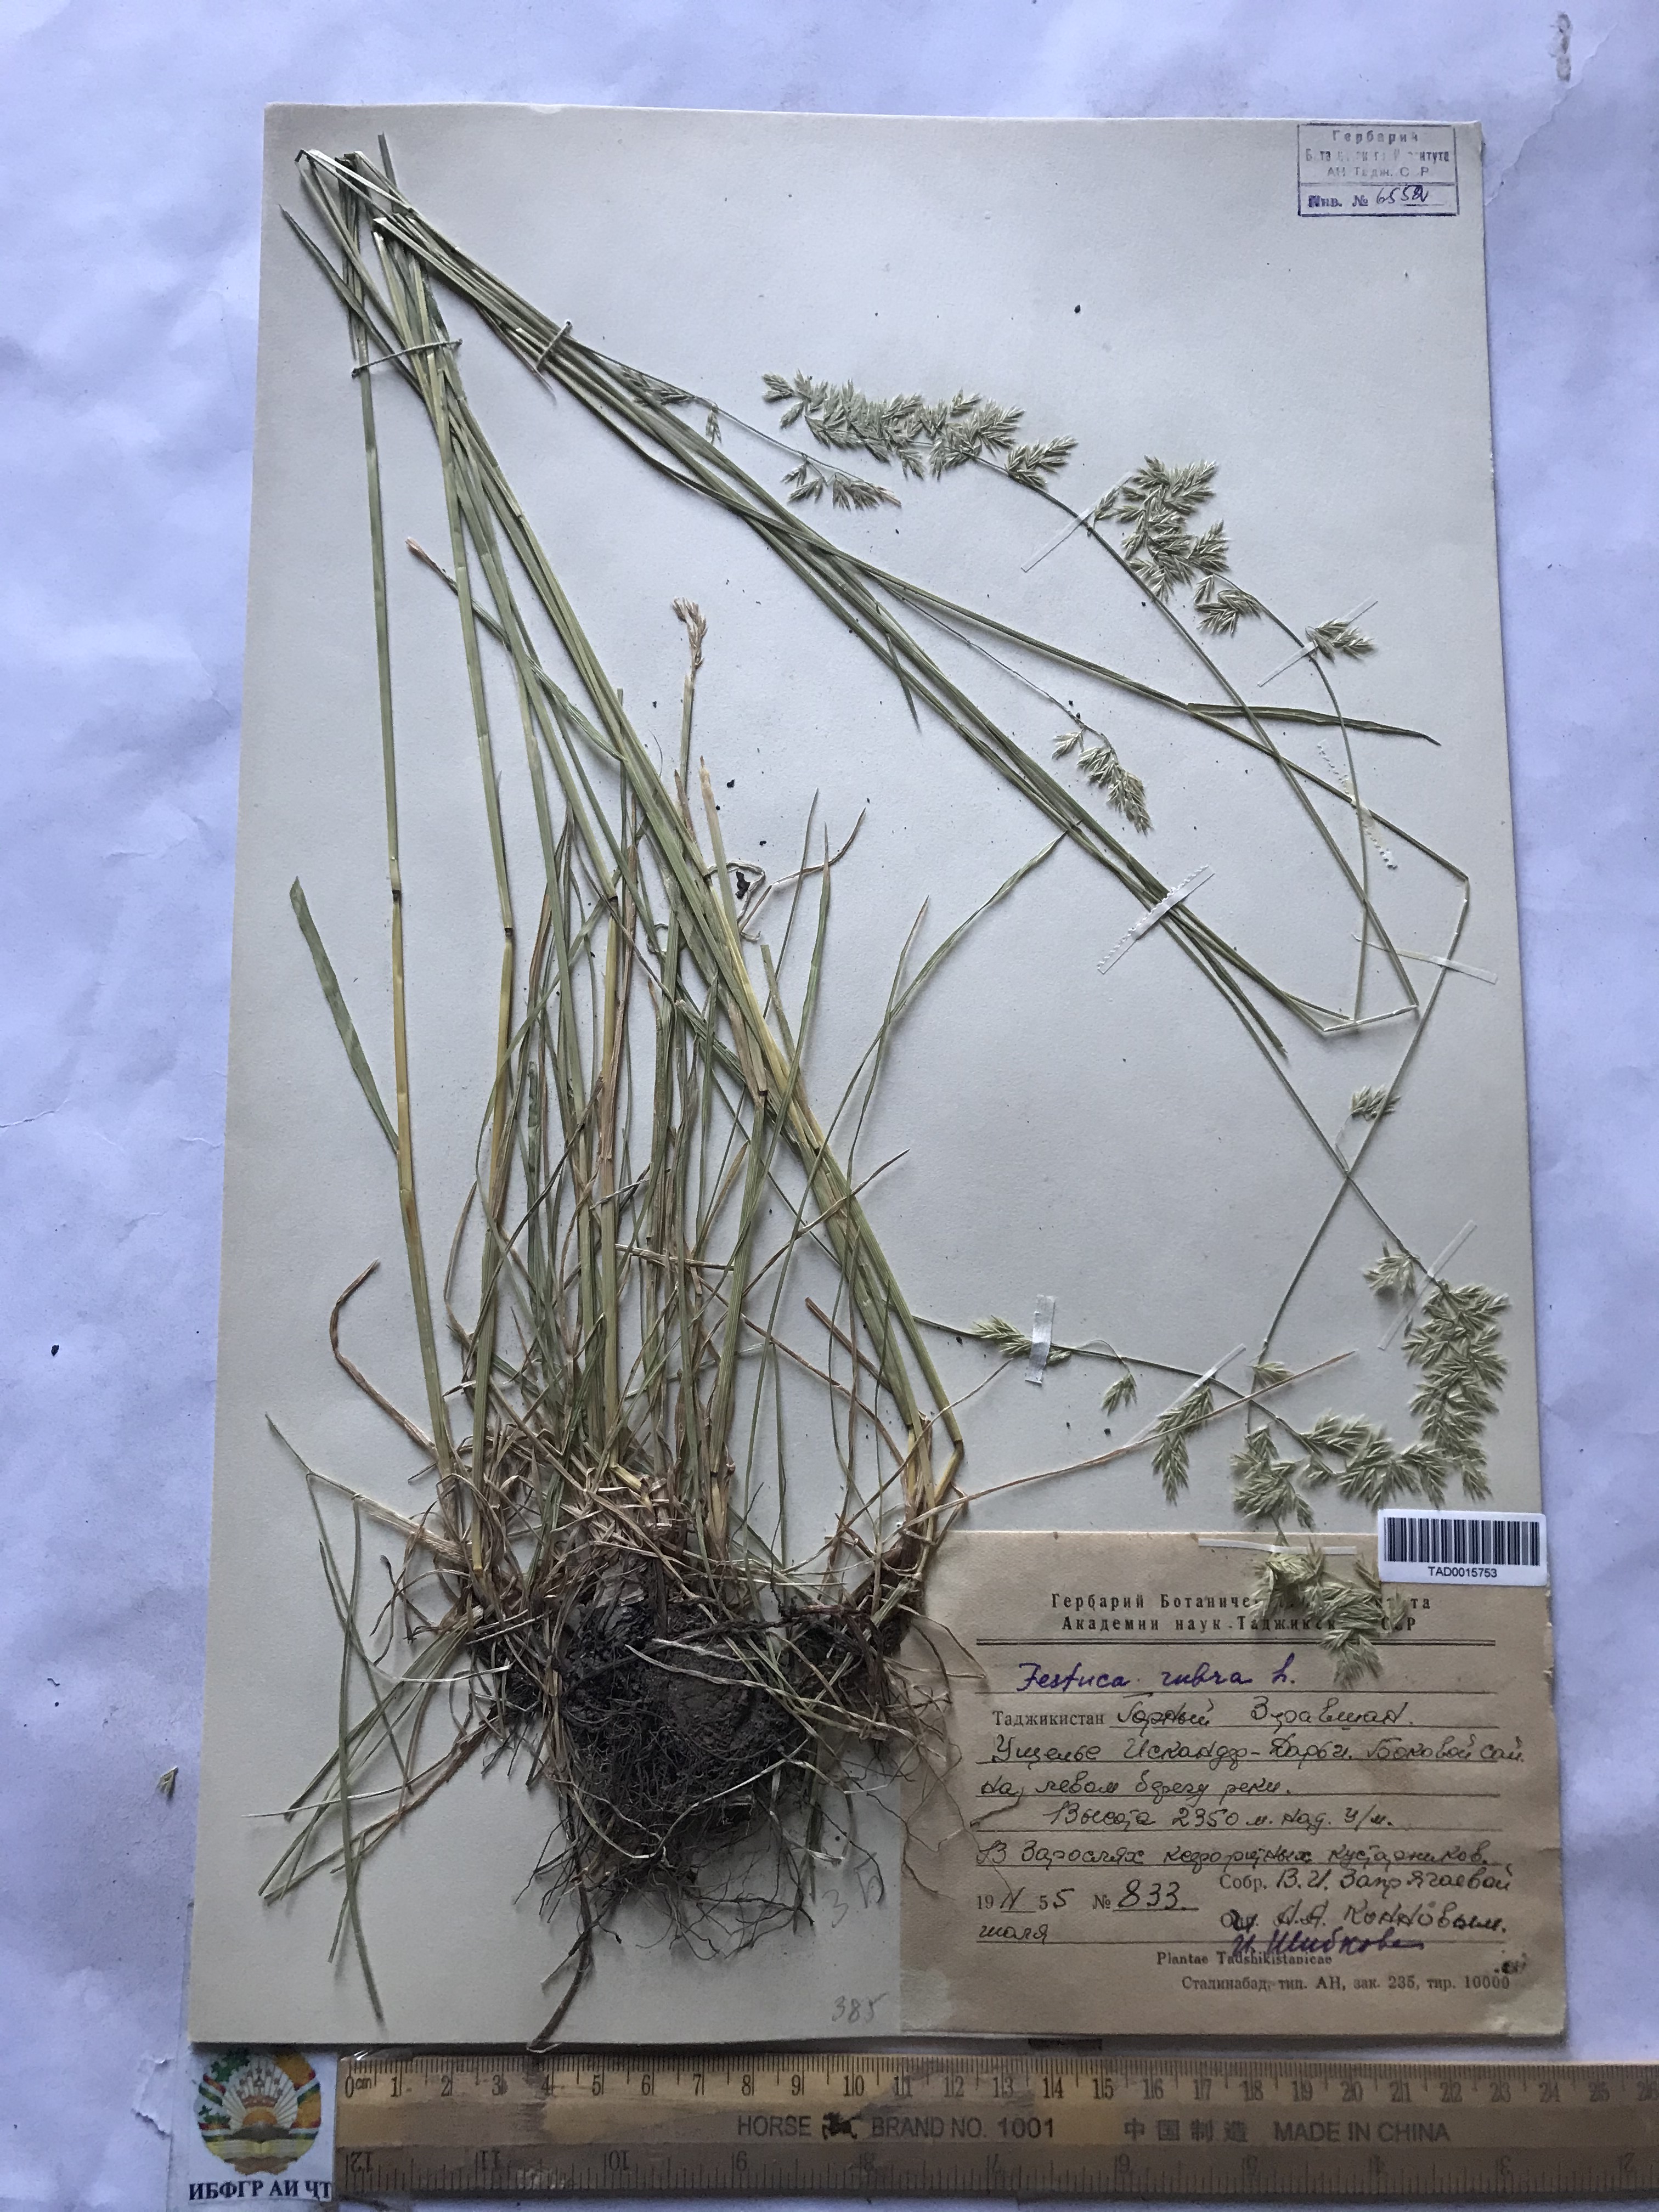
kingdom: Plantae
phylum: Tracheophyta
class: Liliopsida
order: Poales
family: Poaceae
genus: Festuca
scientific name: Festuca
